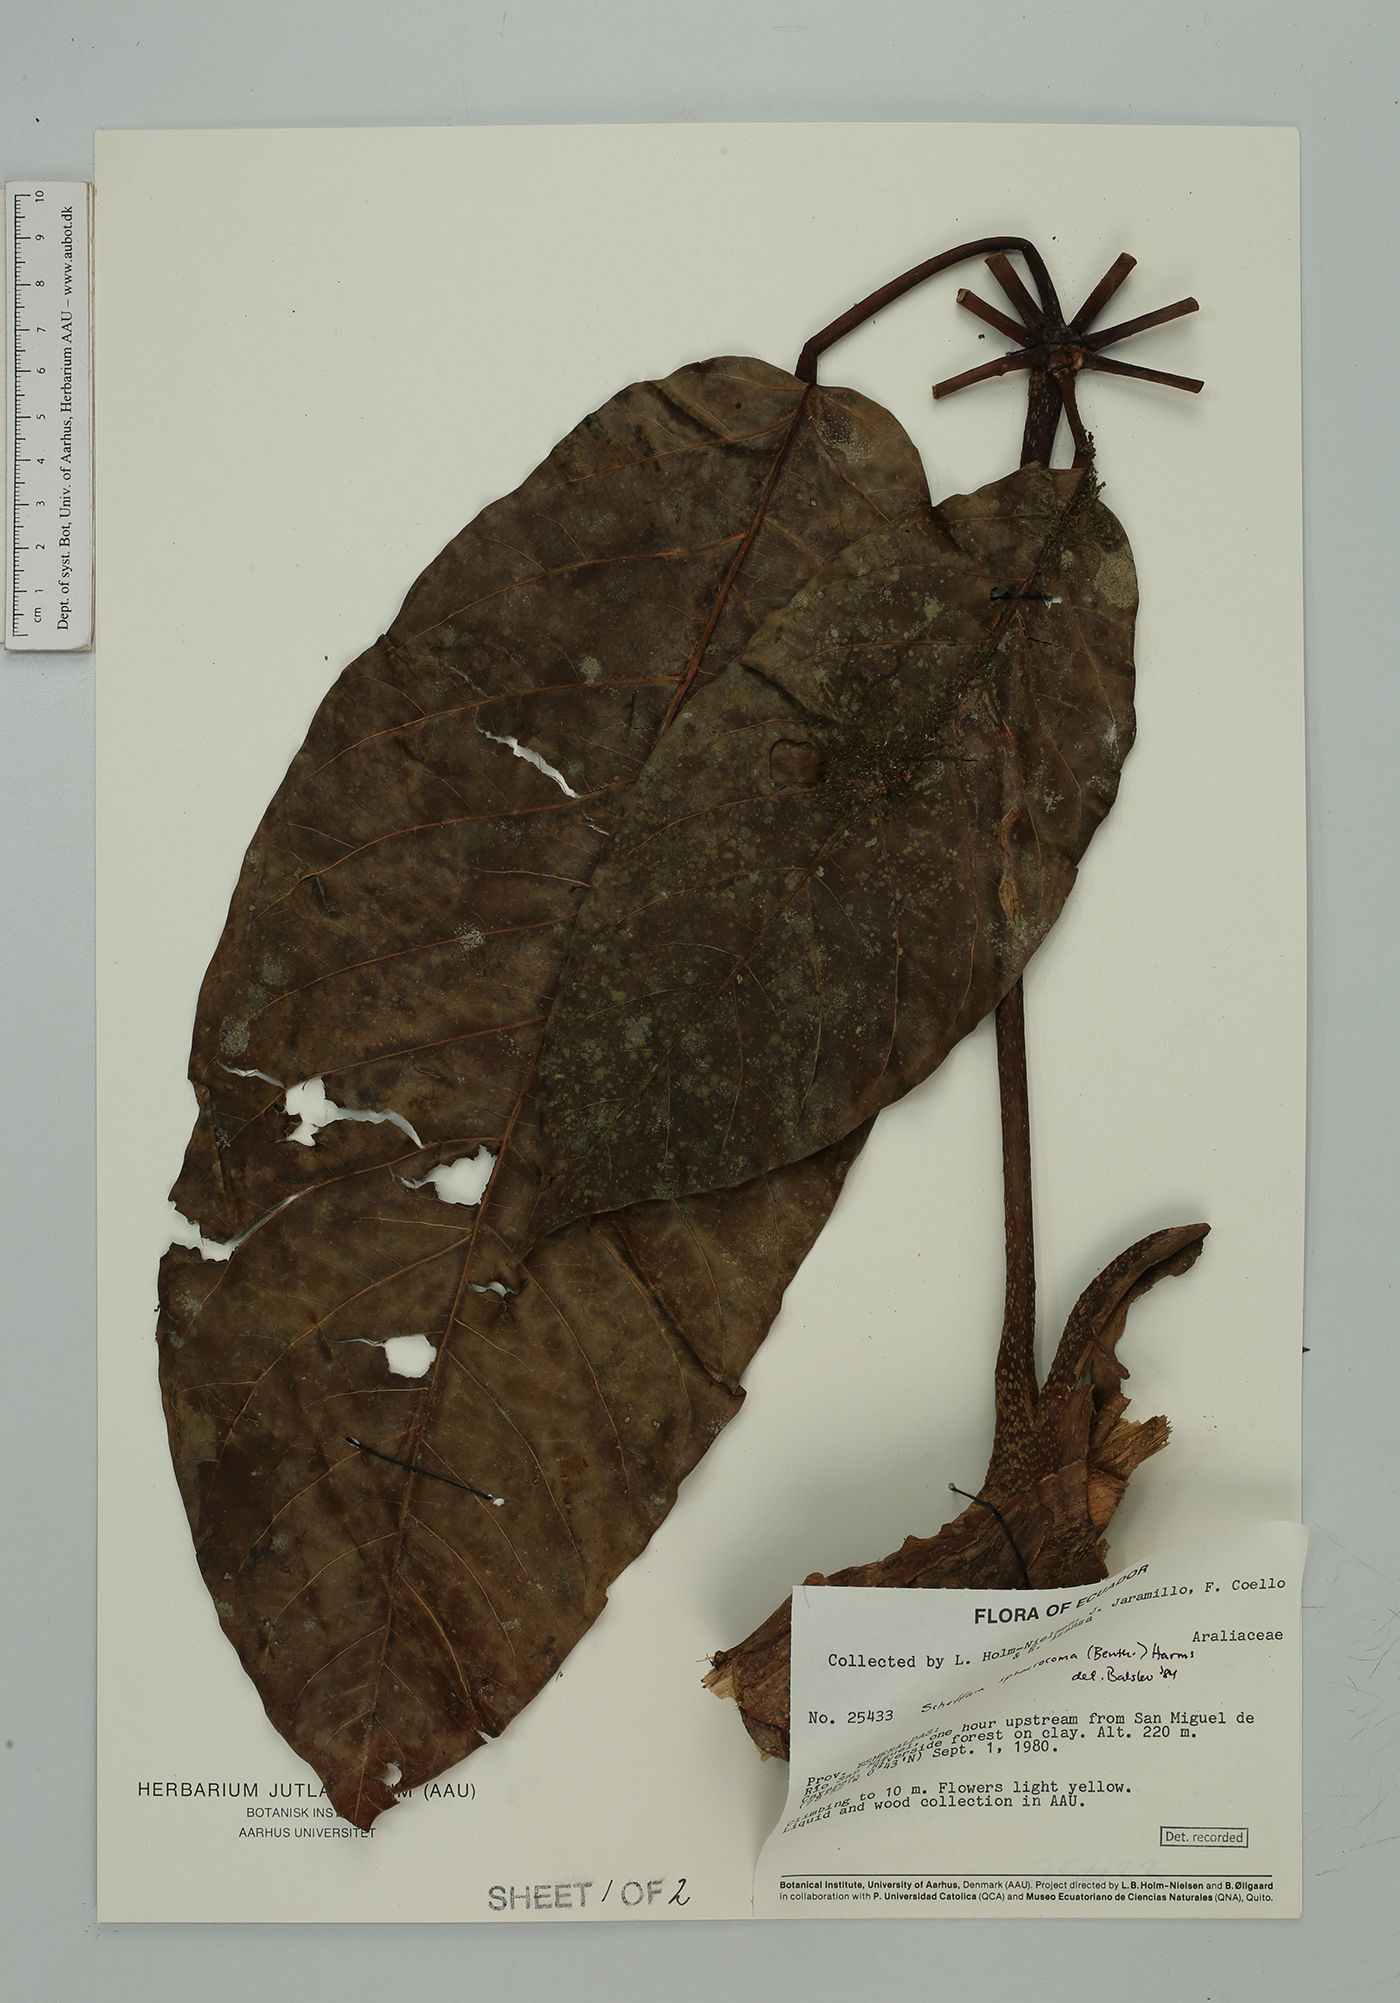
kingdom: Plantae
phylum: Tracheophyta
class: Magnoliopsida
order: Apiales
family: Araliaceae
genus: Sciodaphyllum
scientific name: Sciodaphyllum sphaerocoma
